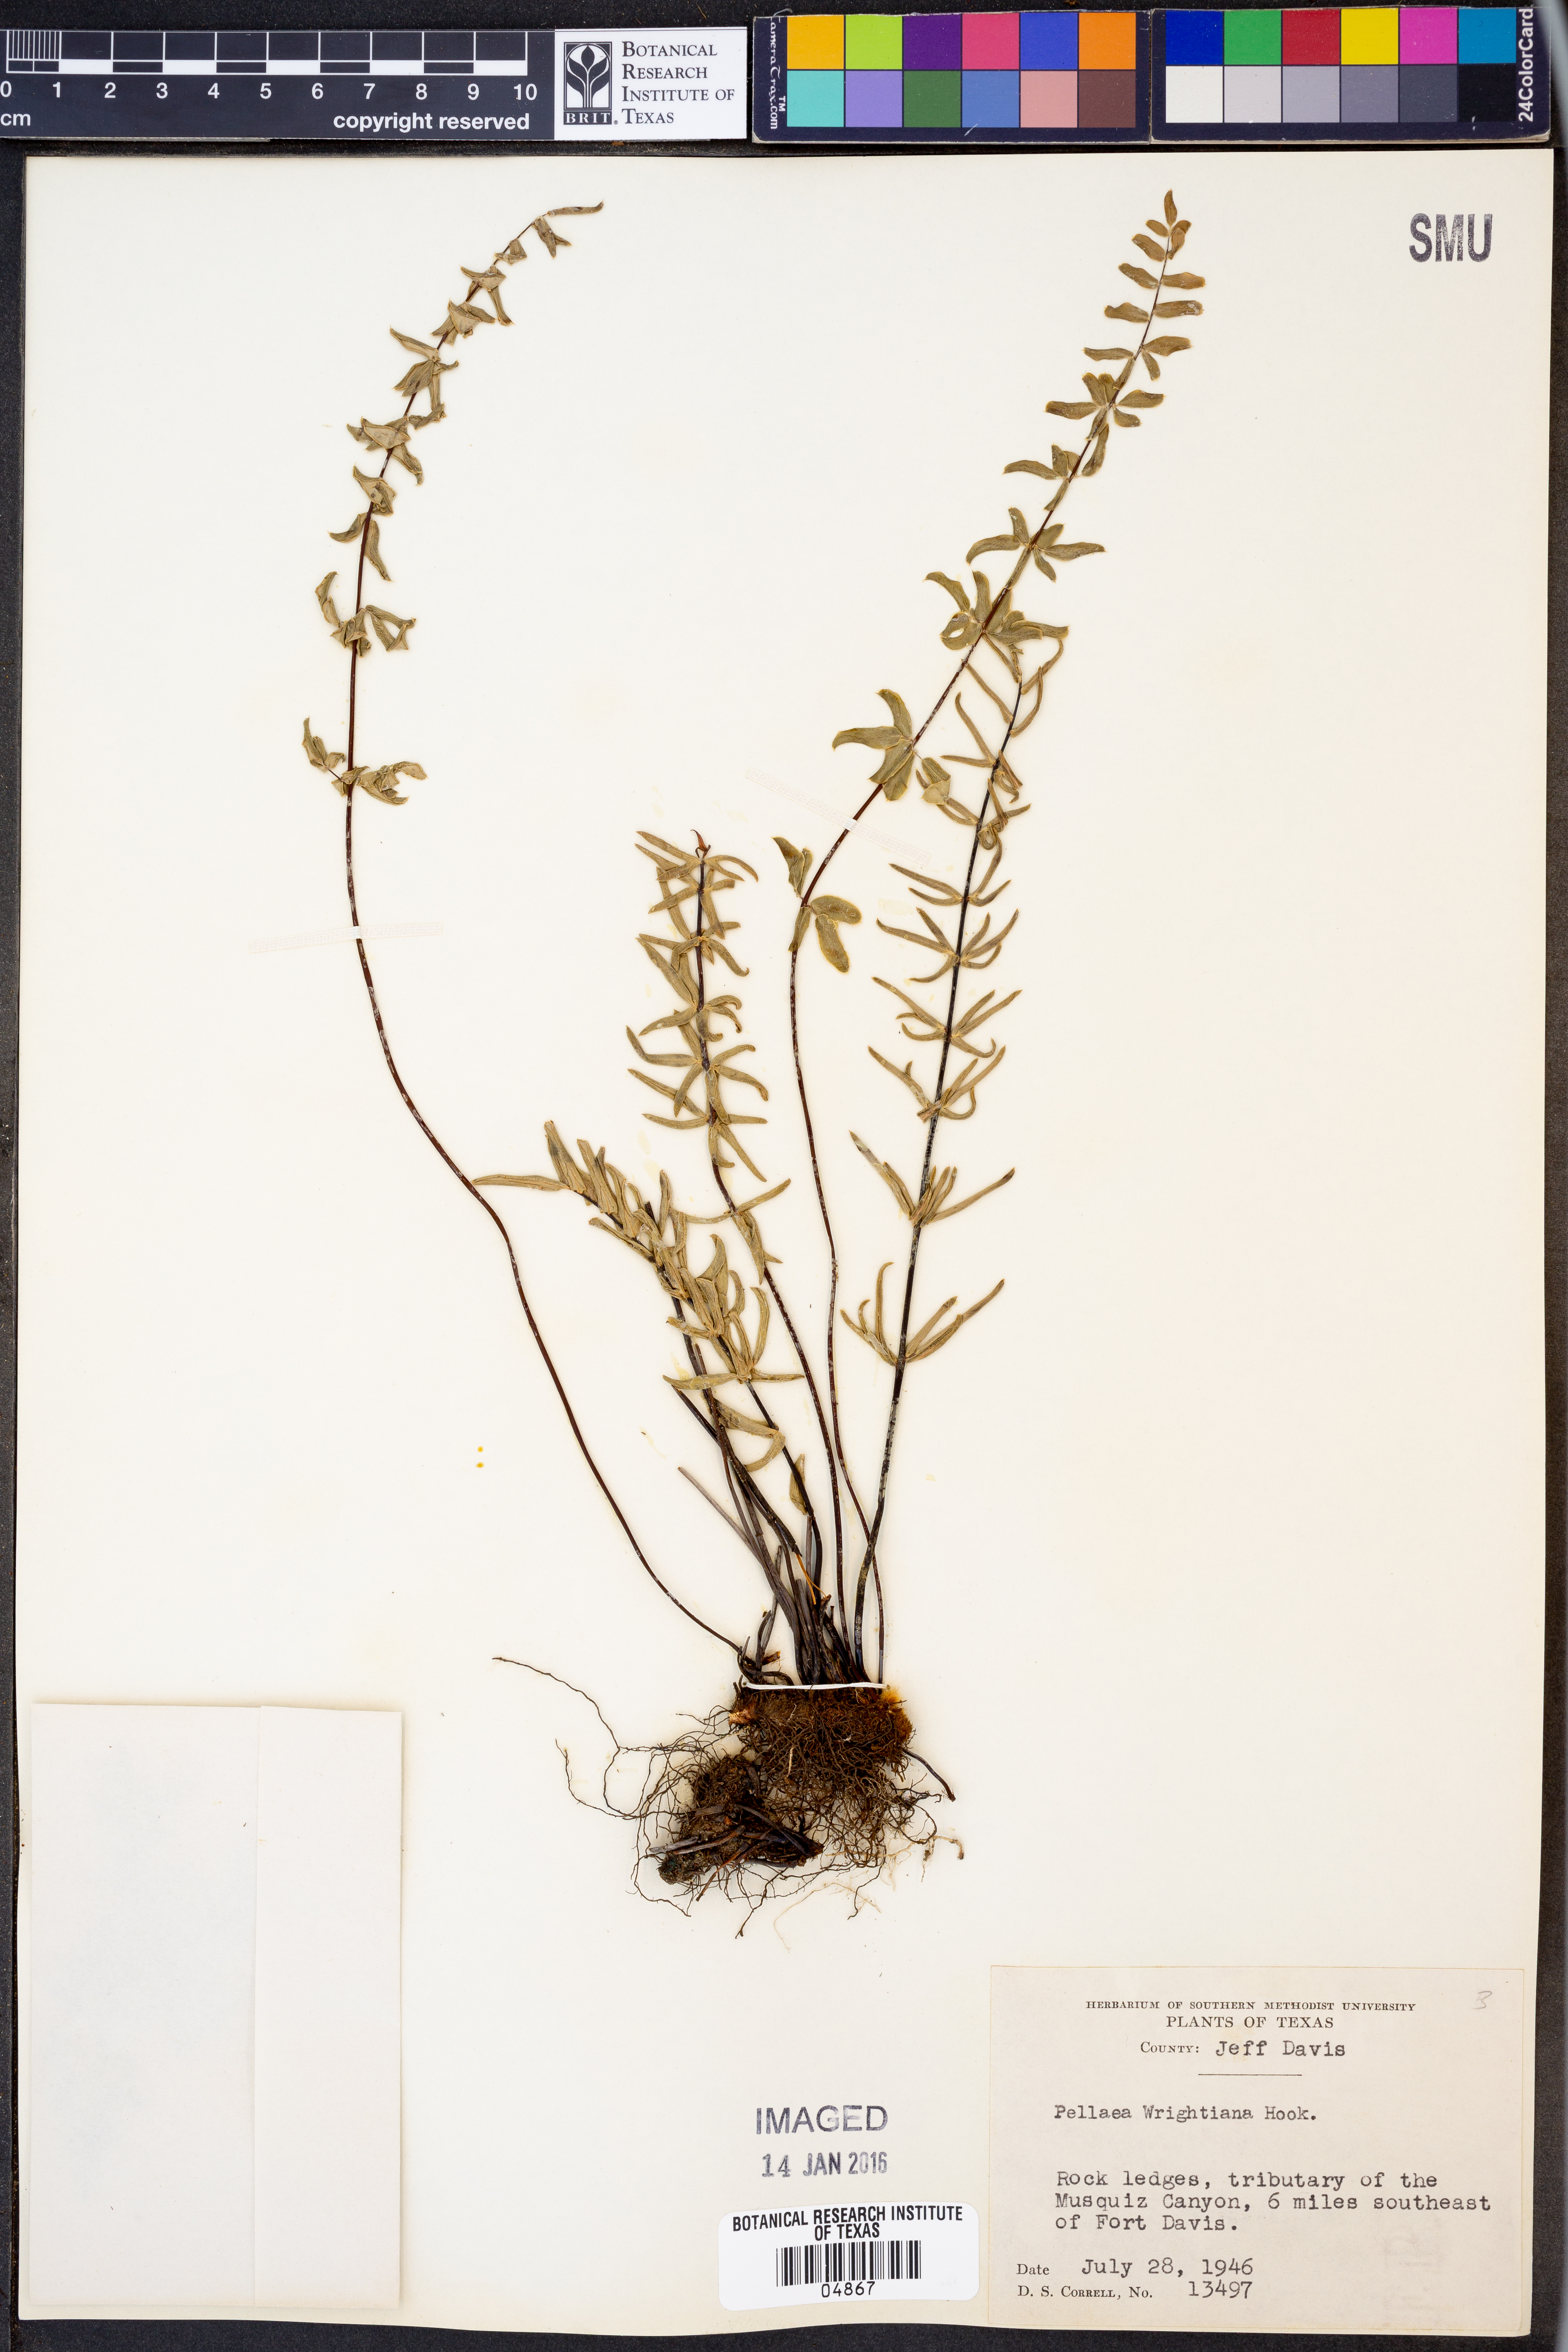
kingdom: Plantae
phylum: Tracheophyta
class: Polypodiopsida
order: Polypodiales
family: Pteridaceae
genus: Pellaea
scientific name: Pellaea wrightiana
